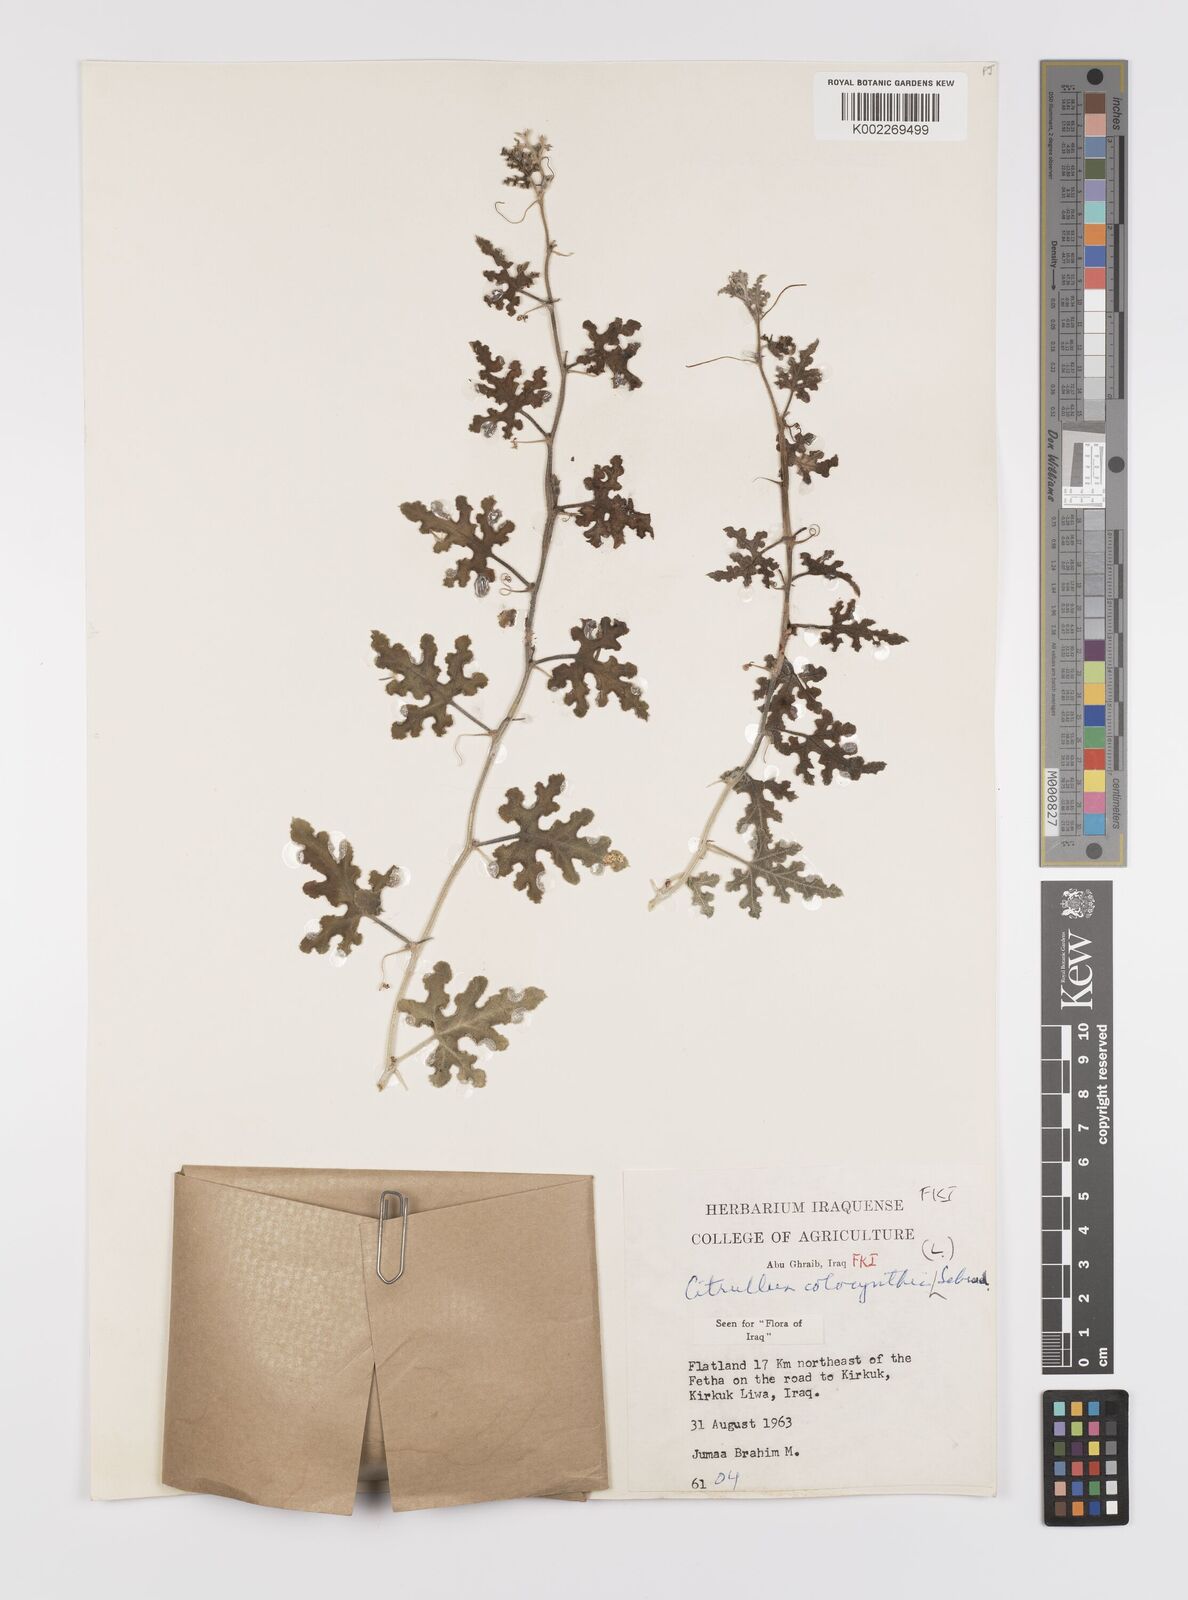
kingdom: Plantae
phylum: Tracheophyta
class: Magnoliopsida
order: Cucurbitales
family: Cucurbitaceae
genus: Citrullus
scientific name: Citrullus colocynthis
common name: Colocynth
